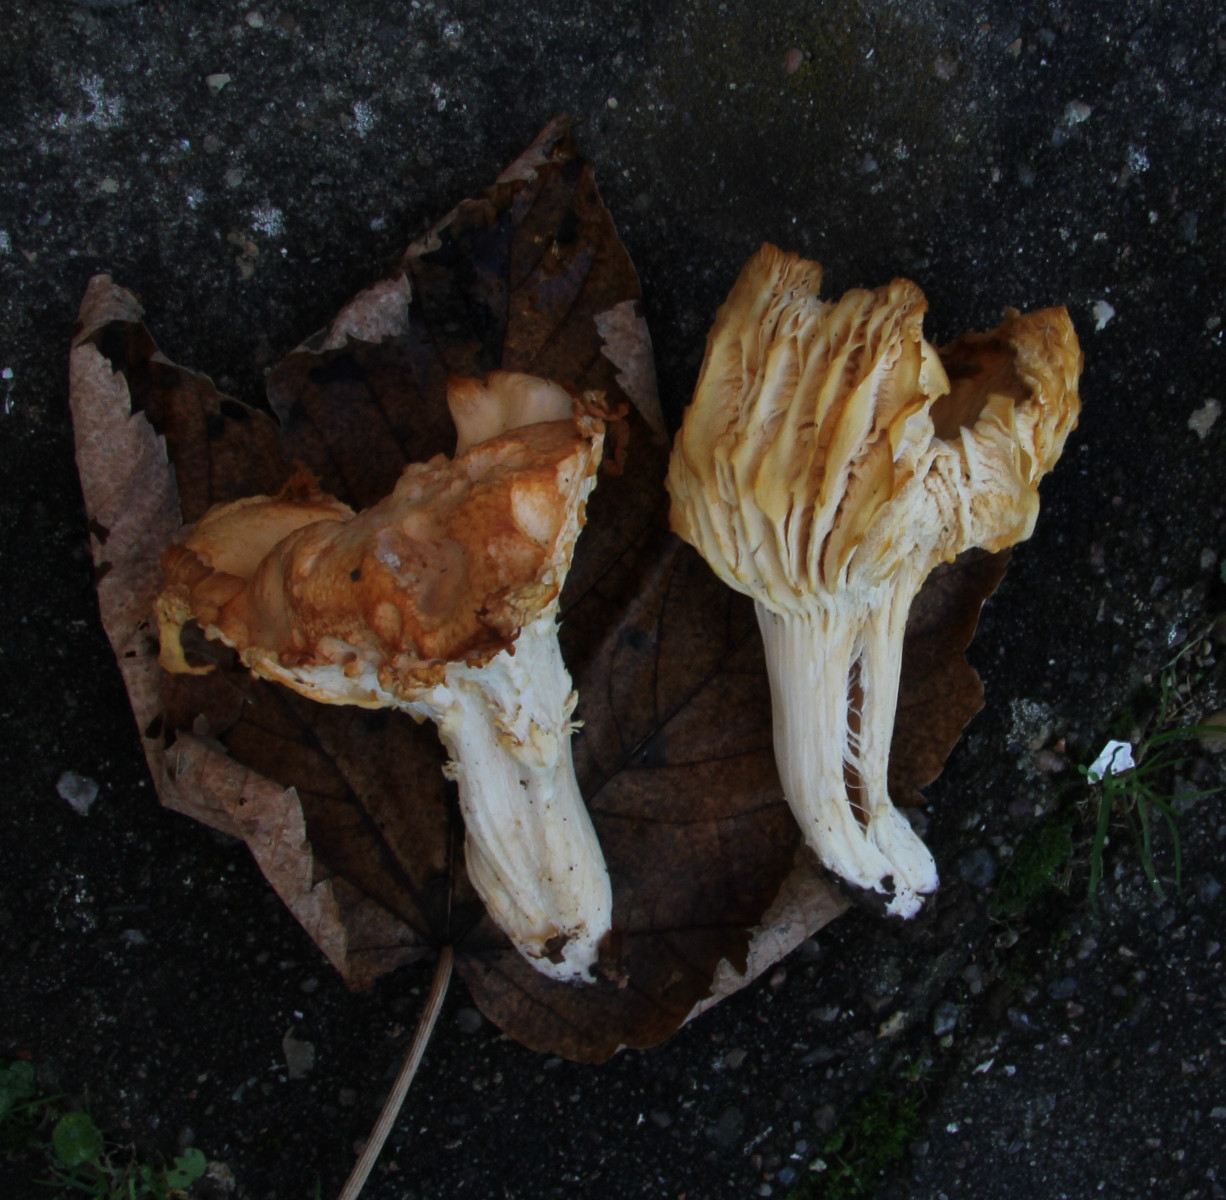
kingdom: Fungi
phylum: Basidiomycota
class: Agaricomycetes
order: Agaricales
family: Hygrophoraceae
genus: Cuphophyllus
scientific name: Cuphophyllus
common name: vokshat
